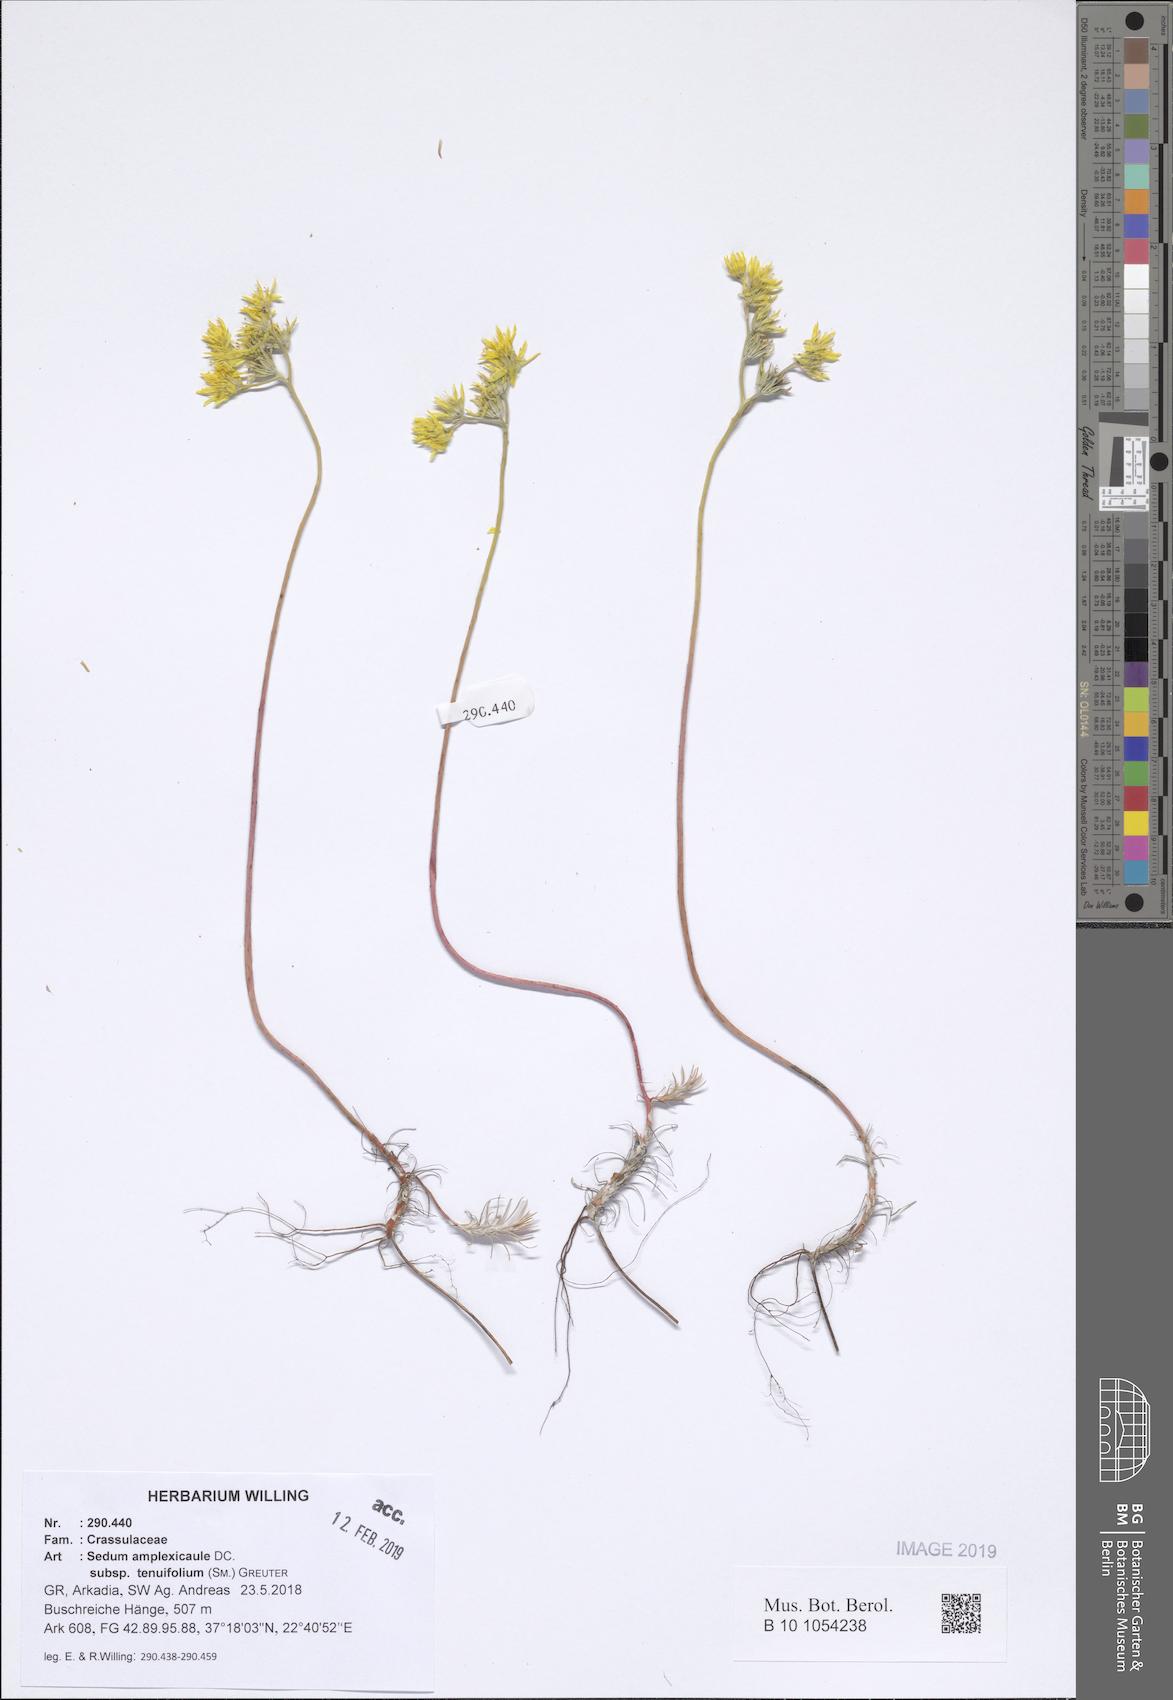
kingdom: Plantae
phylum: Tracheophyta
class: Magnoliopsida
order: Saxifragales
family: Crassulaceae
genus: Petrosedum
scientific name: Petrosedum tenuifolium
